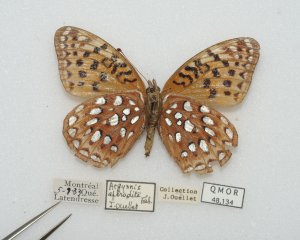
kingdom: Animalia
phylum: Arthropoda
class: Insecta
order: Lepidoptera
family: Nymphalidae
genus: Speyeria
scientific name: Speyeria aphrodite
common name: Aphrodite Fritillary
